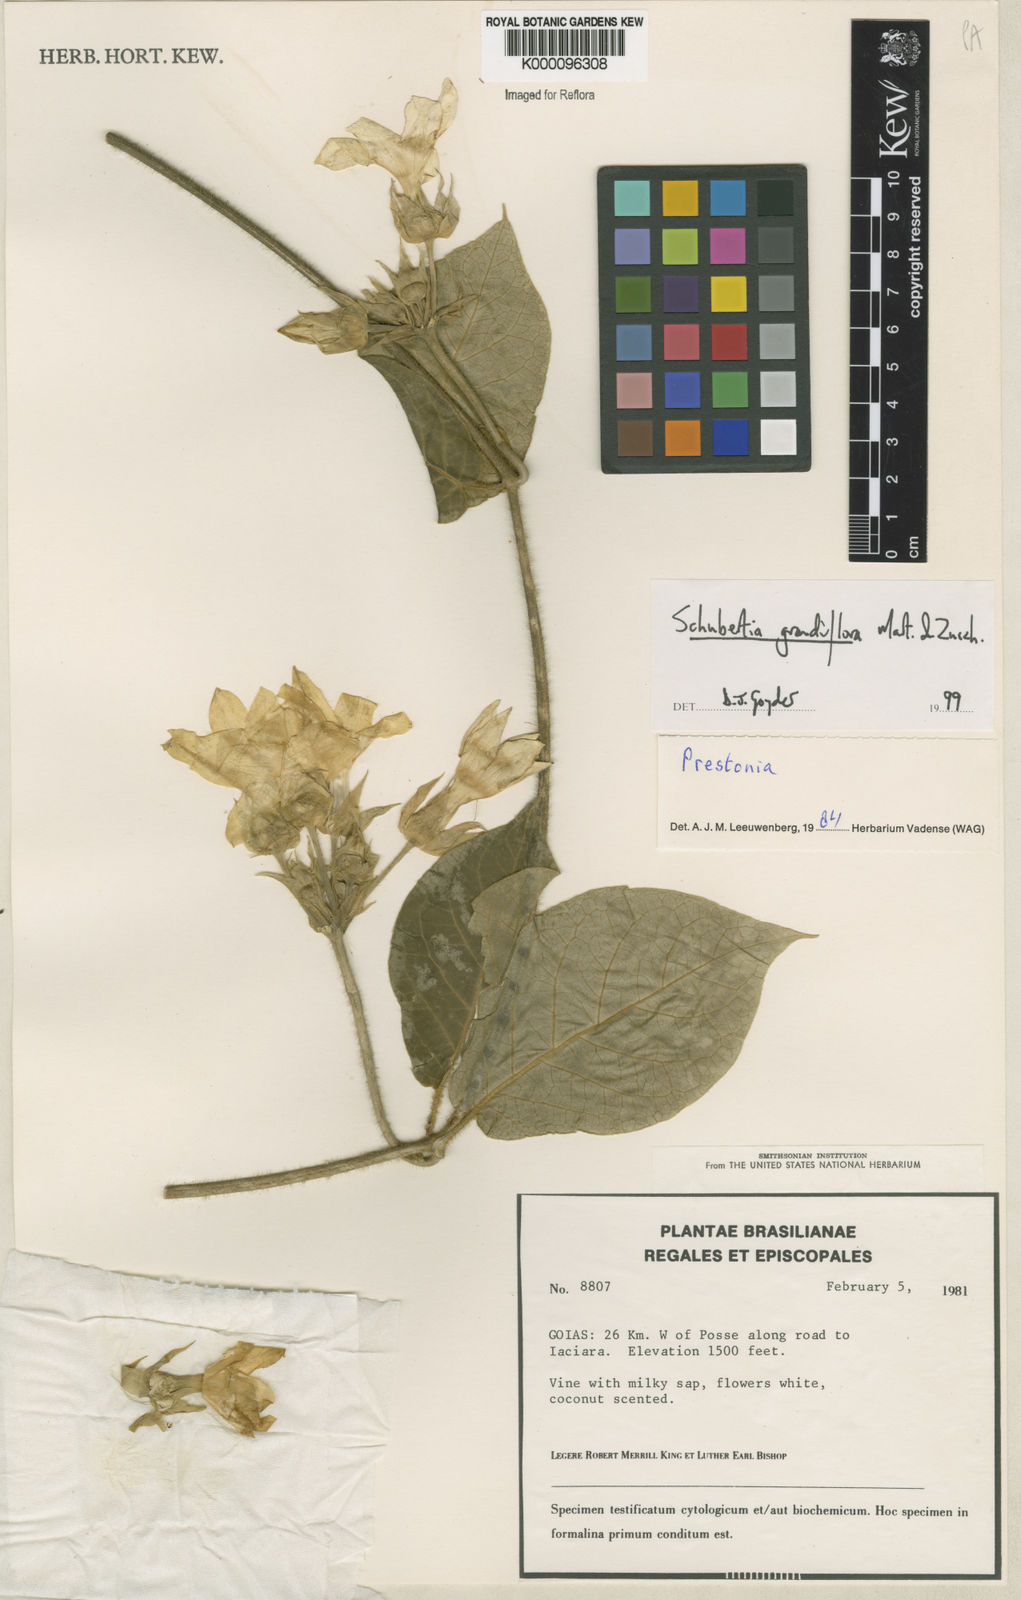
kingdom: Plantae
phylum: Tracheophyta
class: Magnoliopsida
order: Gentianales
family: Apocynaceae
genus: Macroscepis
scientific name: Macroscepis grandiflora
